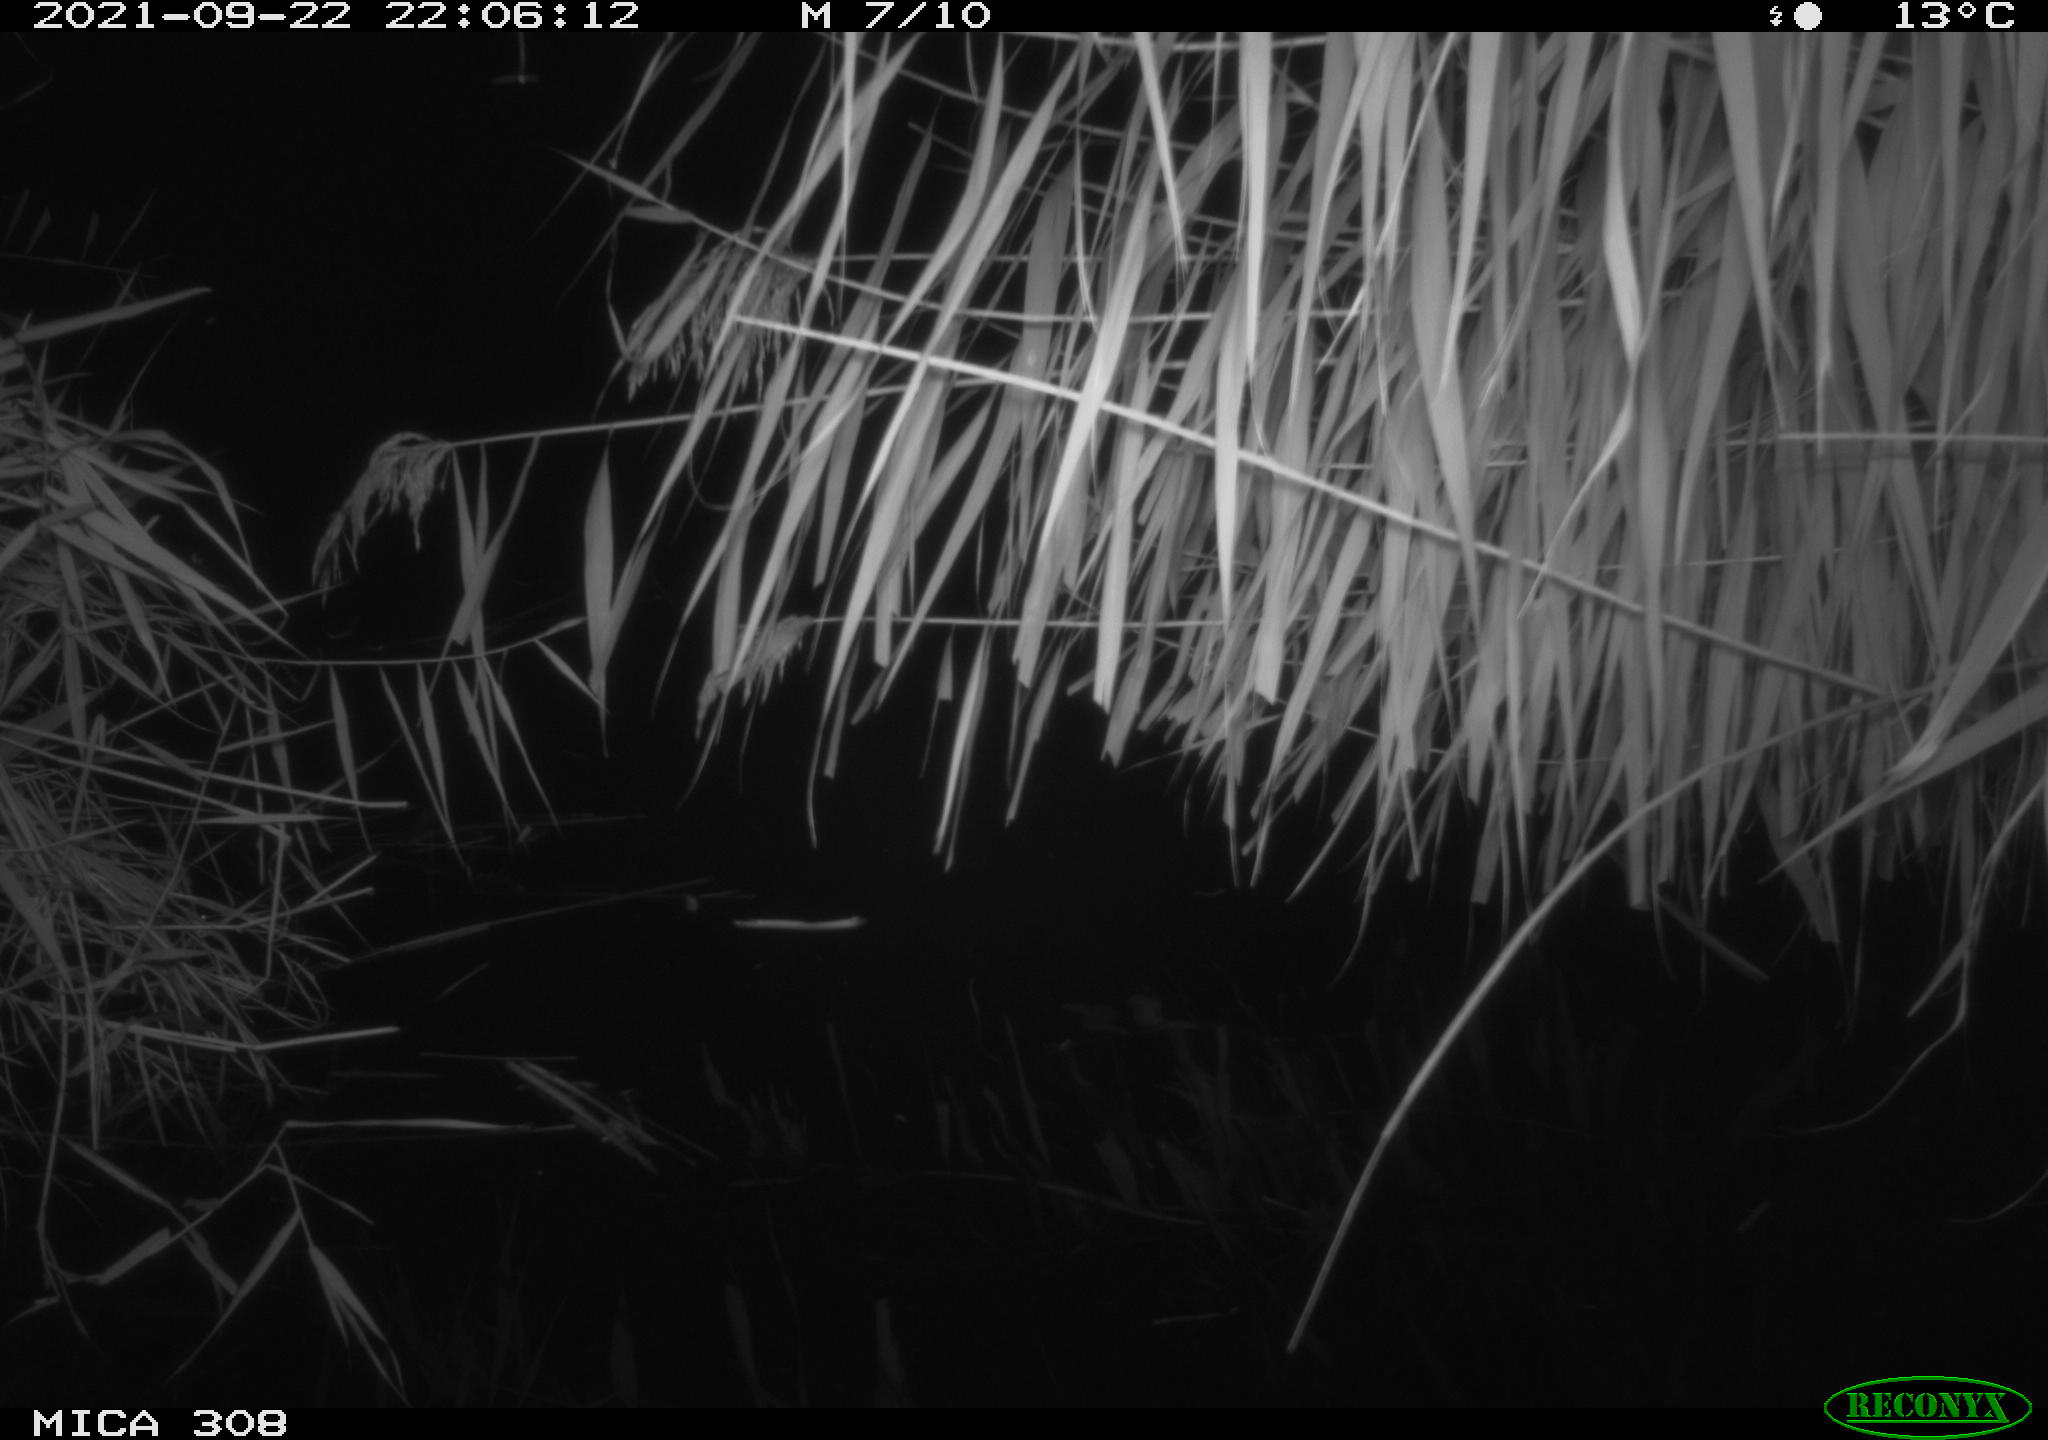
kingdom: Animalia
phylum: Chordata
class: Mammalia
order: Rodentia
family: Muridae
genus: Rattus
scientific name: Rattus norvegicus
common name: Brown rat
